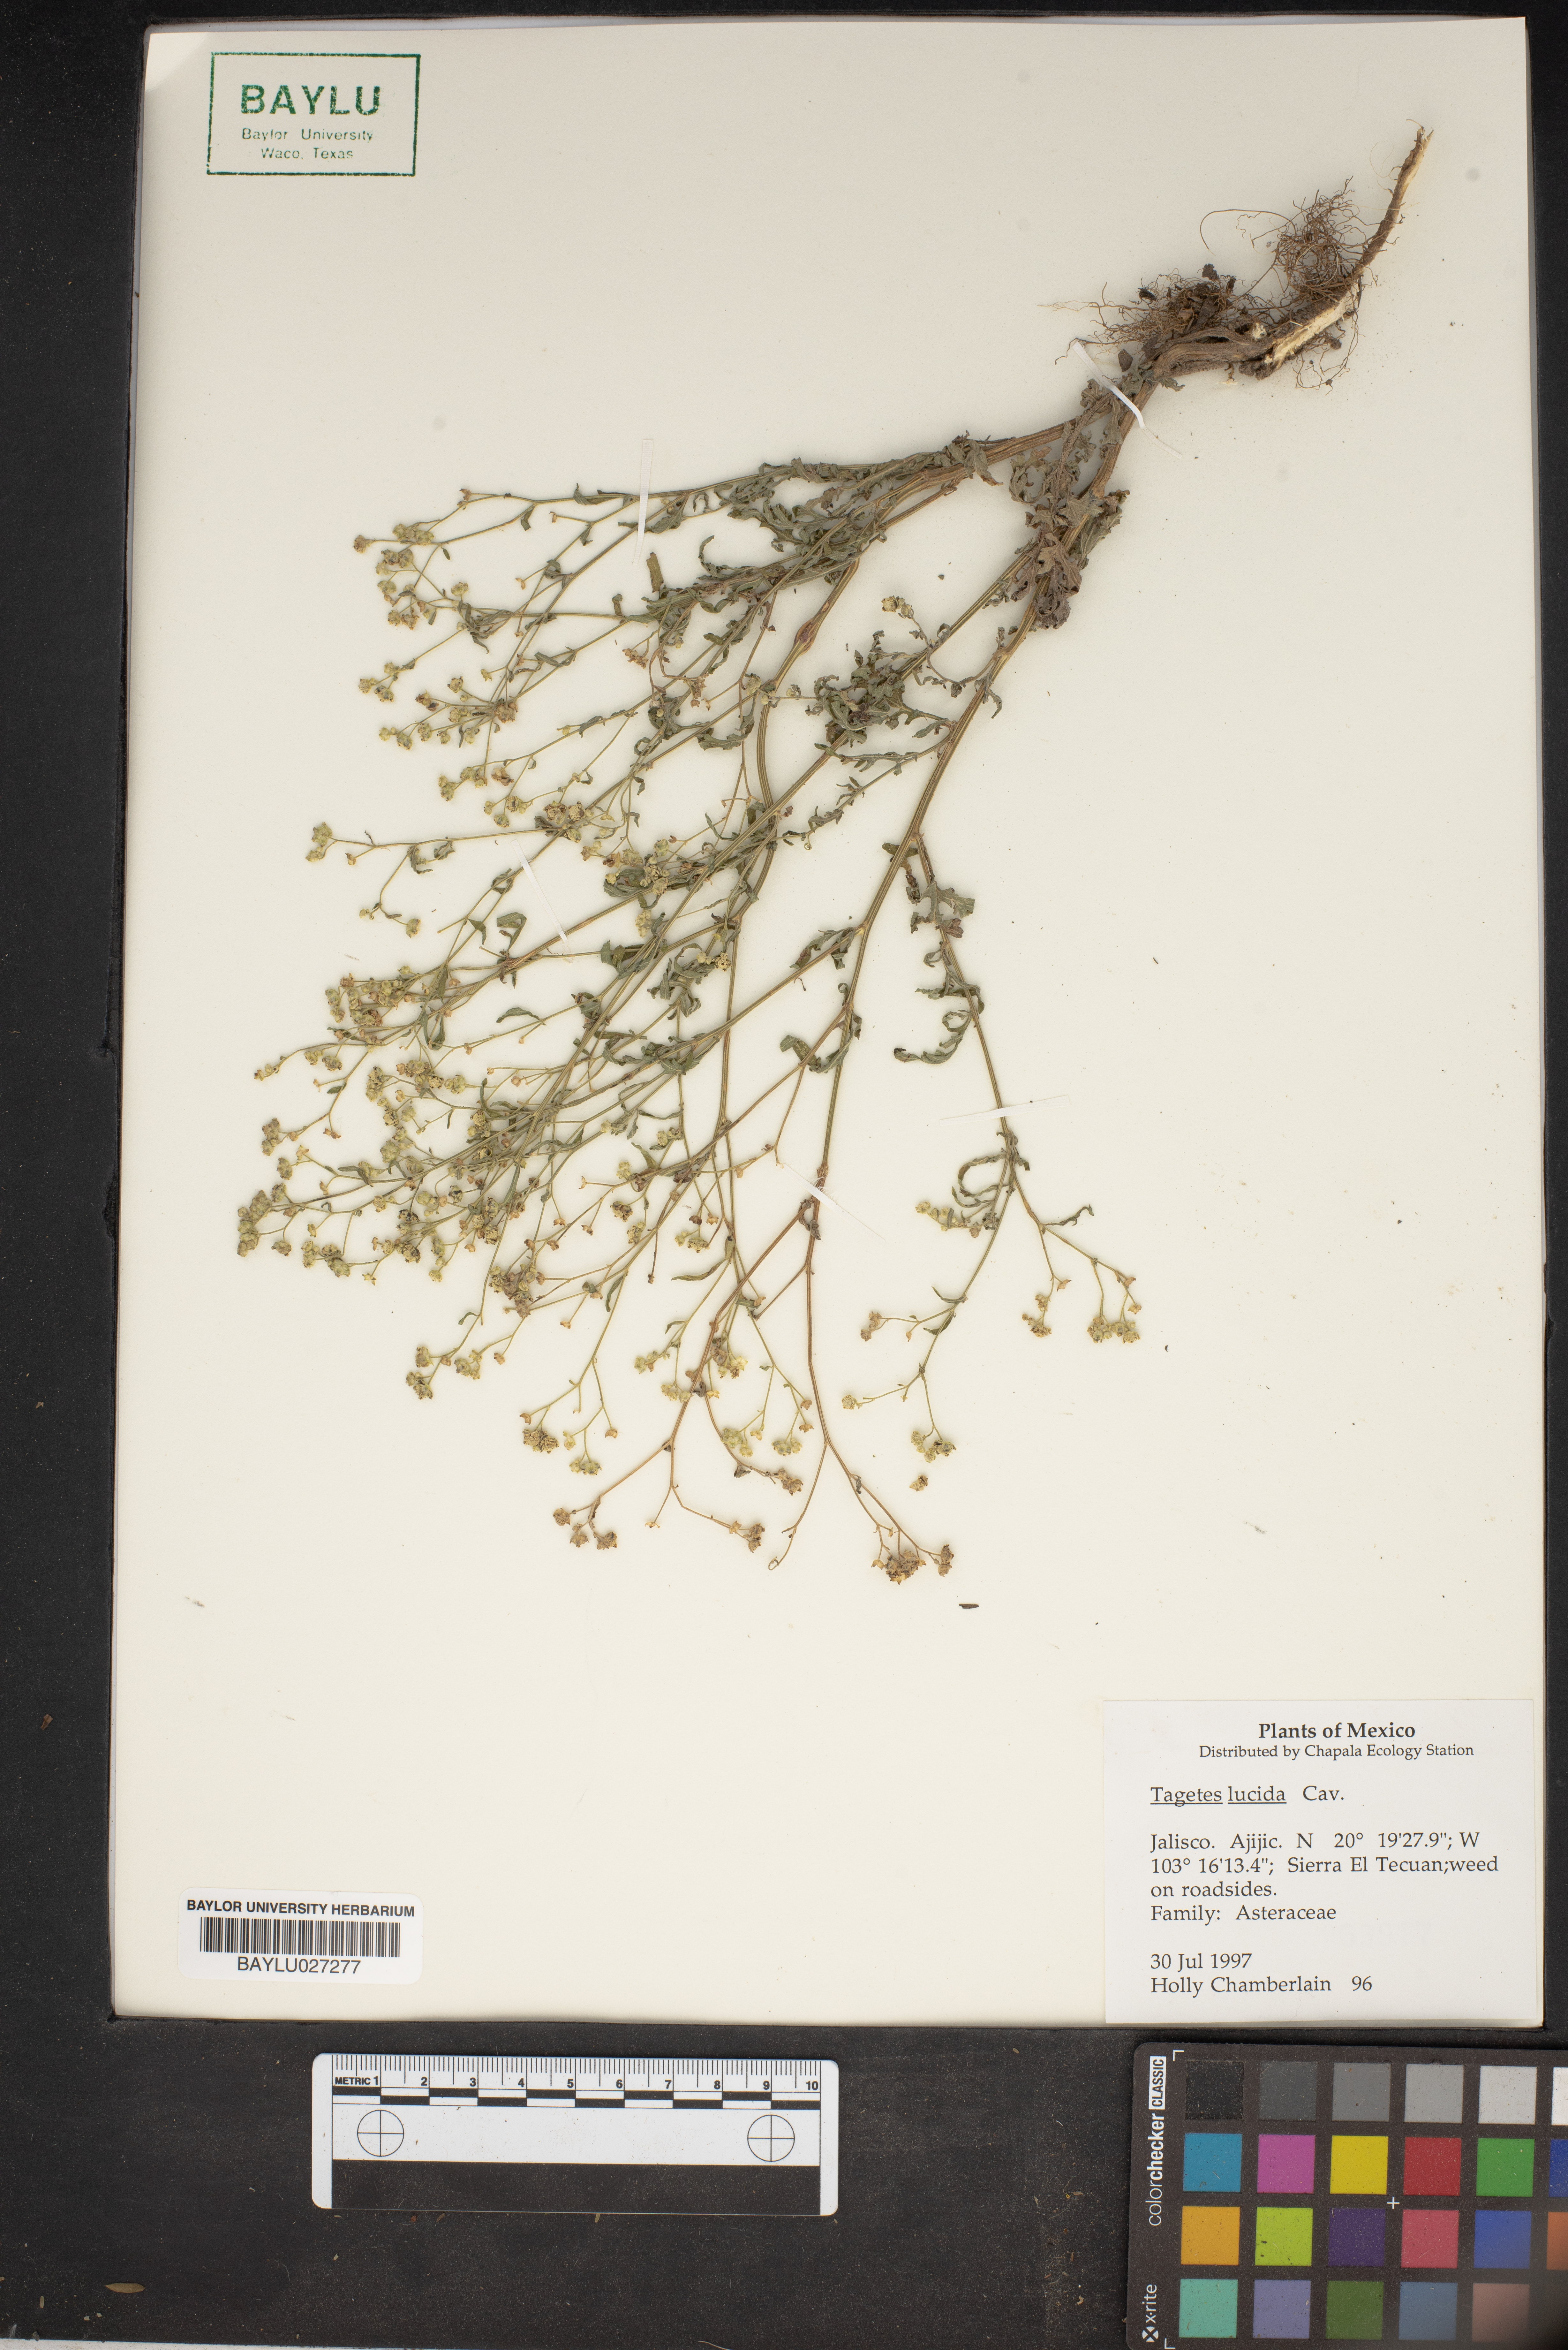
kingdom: Plantae
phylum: Tracheophyta
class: Magnoliopsida
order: Asterales
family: Asteraceae
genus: Tagetes
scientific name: Tagetes lucida
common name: Sweetscented marigold
